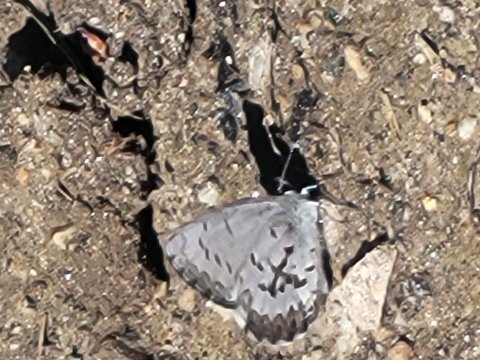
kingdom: Animalia
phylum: Arthropoda
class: Insecta
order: Lepidoptera
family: Lycaenidae
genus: Celastrina
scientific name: Celastrina lucia
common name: Northern Spring Azure
